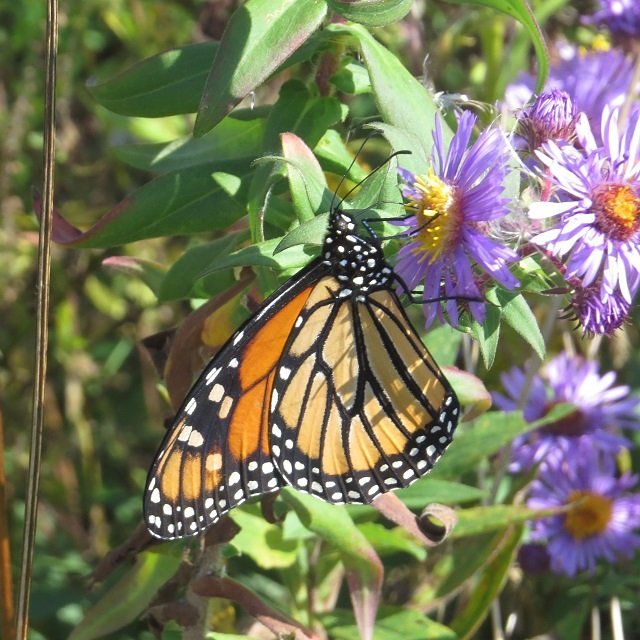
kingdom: Animalia
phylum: Arthropoda
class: Insecta
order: Lepidoptera
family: Nymphalidae
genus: Danaus
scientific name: Danaus plexippus
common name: Monarch
